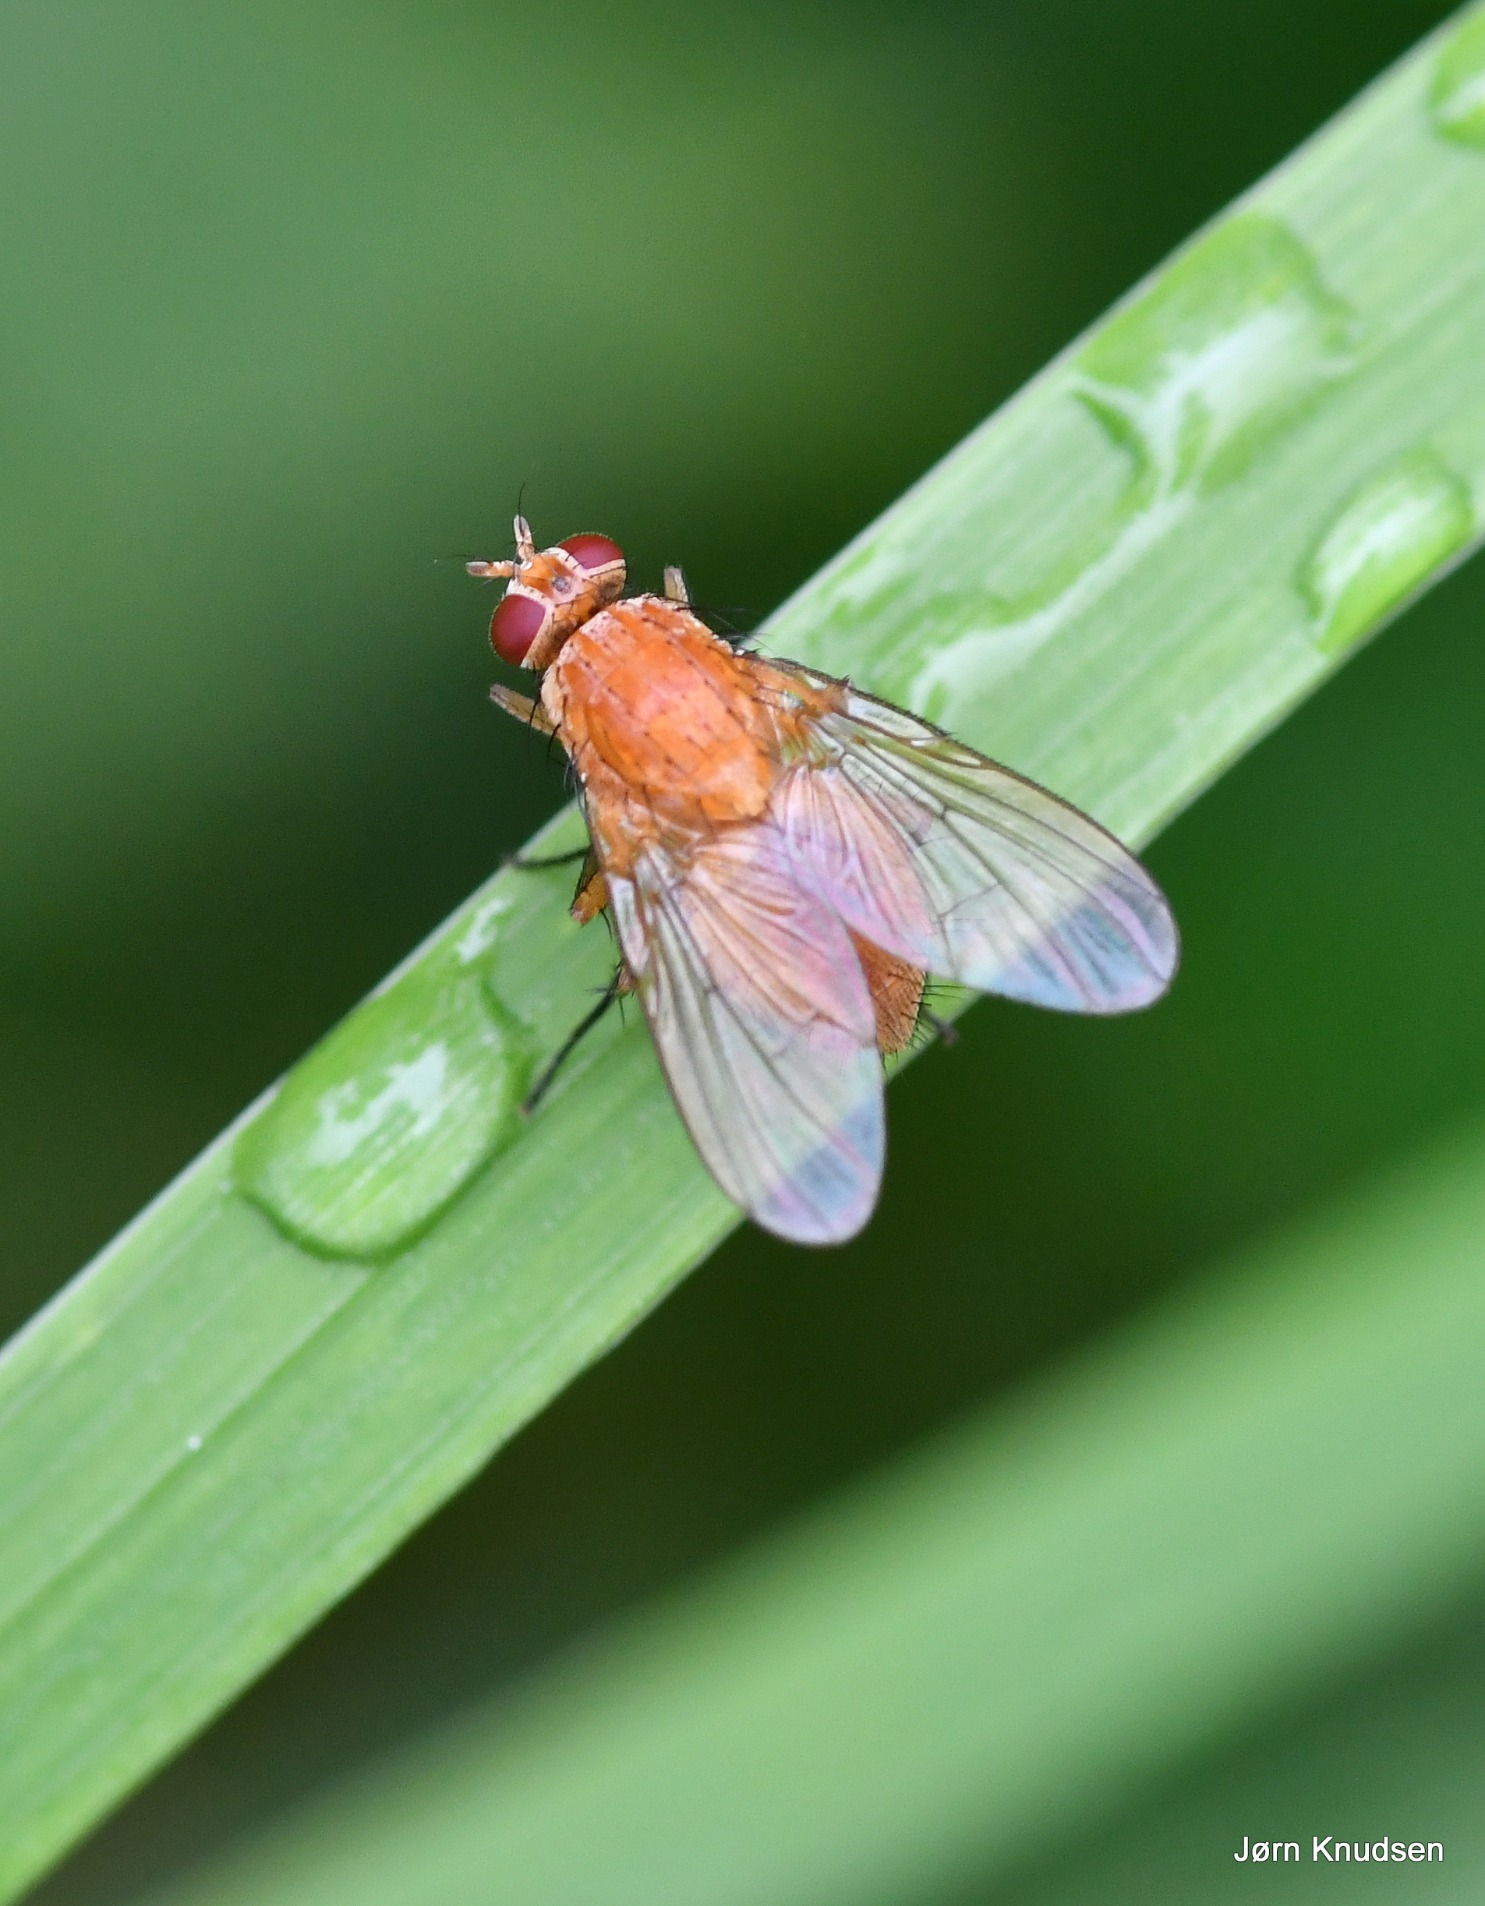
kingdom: Animalia
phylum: Arthropoda
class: Insecta
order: Diptera
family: Muscidae
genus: Phaonia
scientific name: Phaonia pallida
